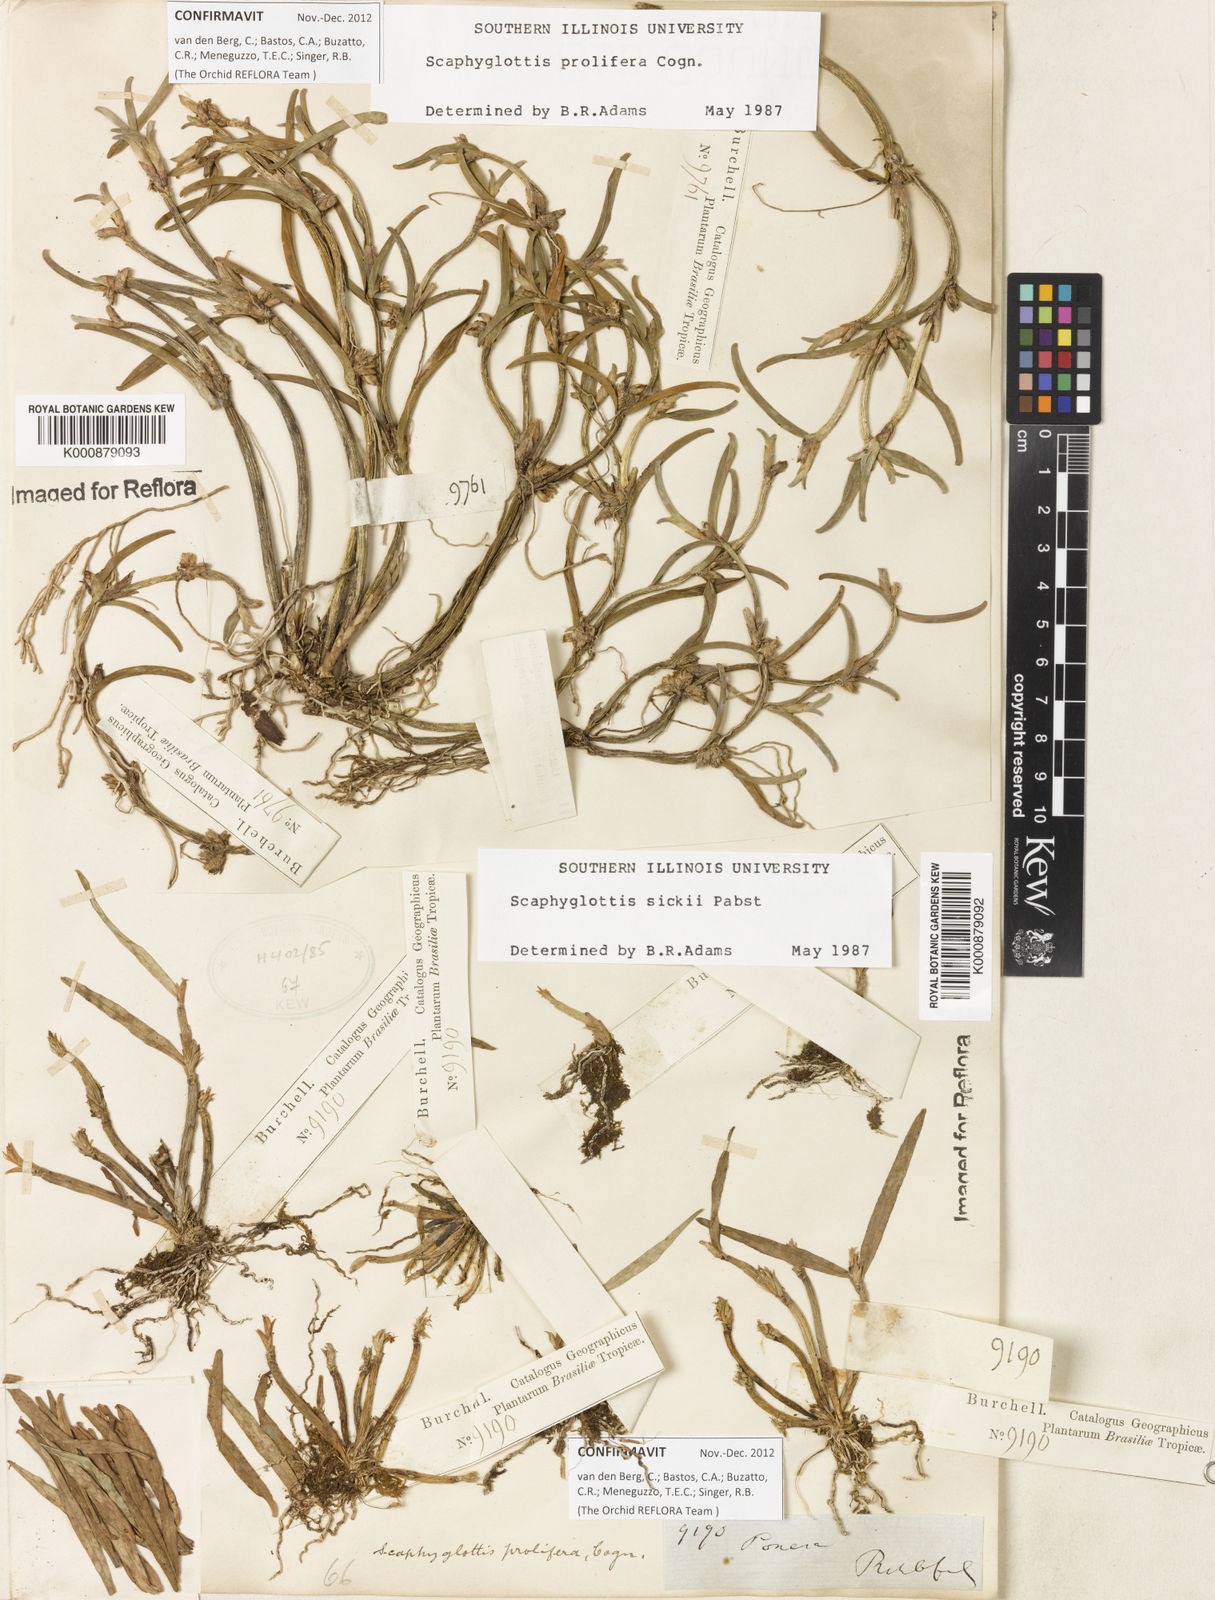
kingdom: Plantae
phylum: Tracheophyta
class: Liliopsida
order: Asparagales
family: Orchidaceae
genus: Scaphyglottis
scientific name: Scaphyglottis prolifera
